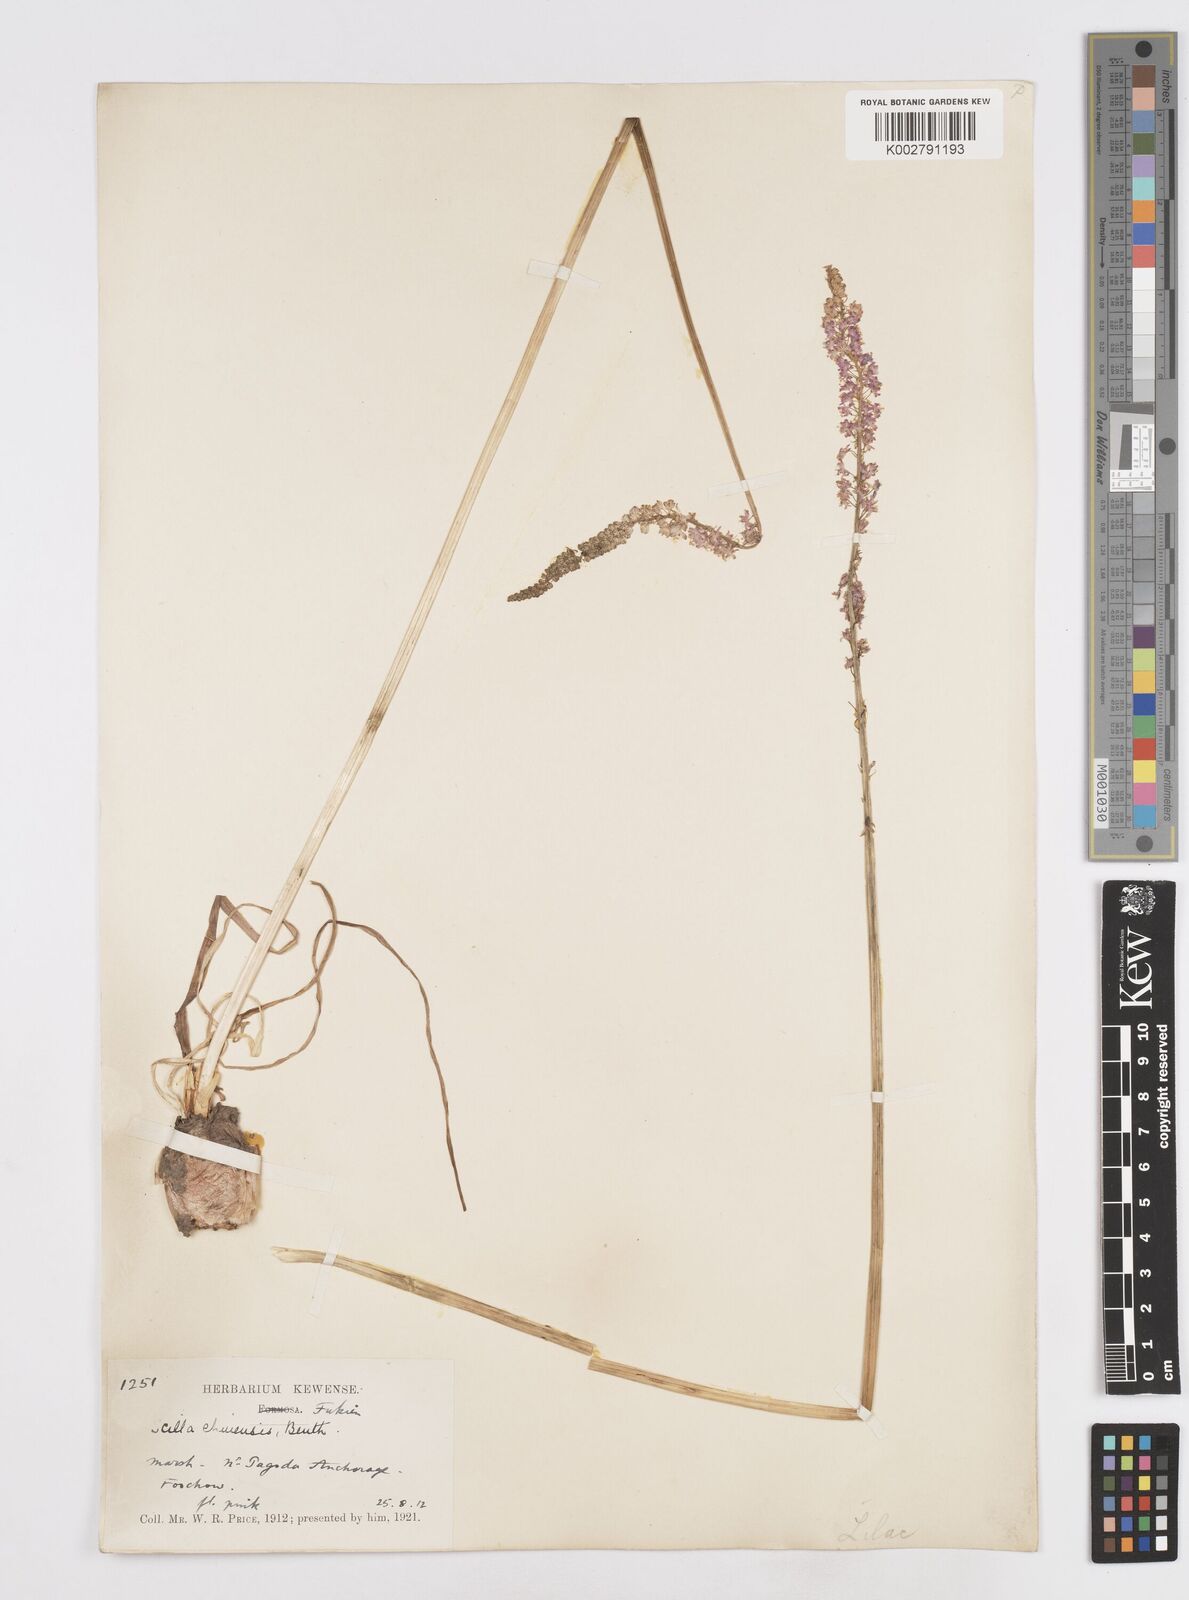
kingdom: Plantae
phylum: Tracheophyta
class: Liliopsida
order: Asparagales
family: Asparagaceae
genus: Barnardia
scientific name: Barnardia japonica
